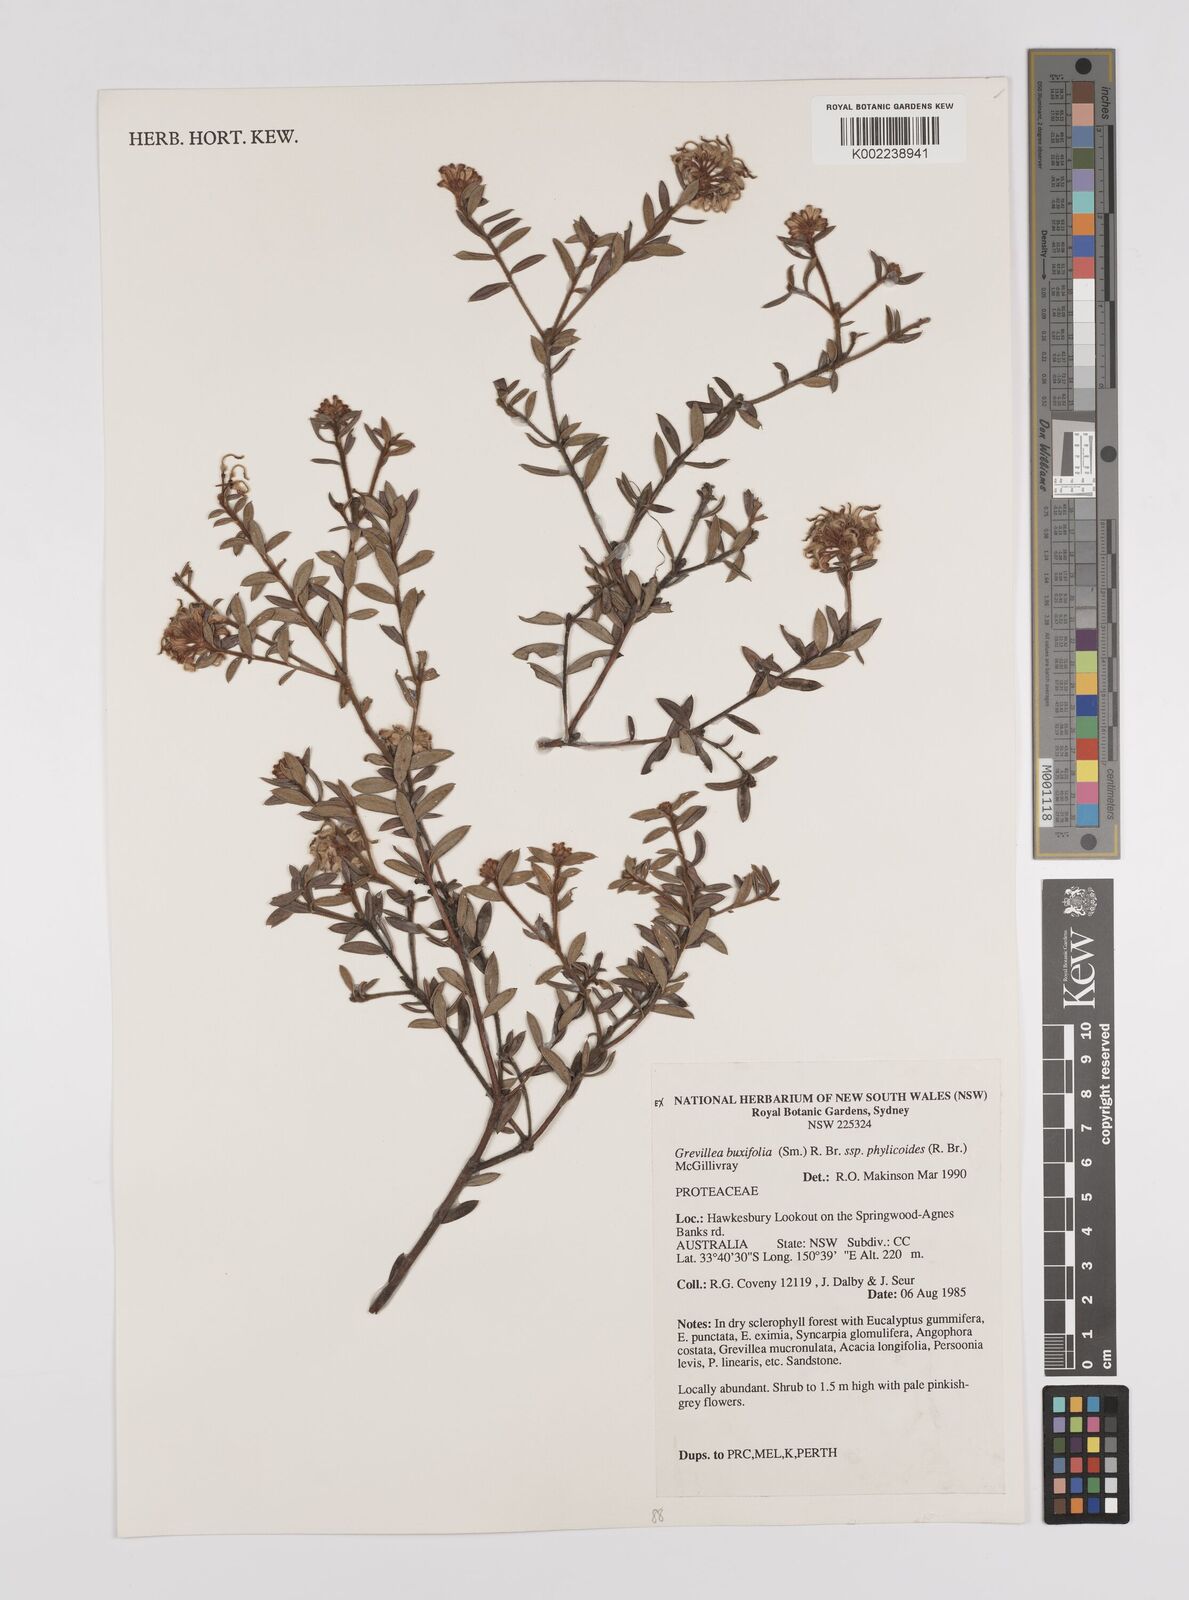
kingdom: Plantae
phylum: Tracheophyta
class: Magnoliopsida
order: Proteales
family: Proteaceae
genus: Grevillea
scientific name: Grevillea phylicoides
